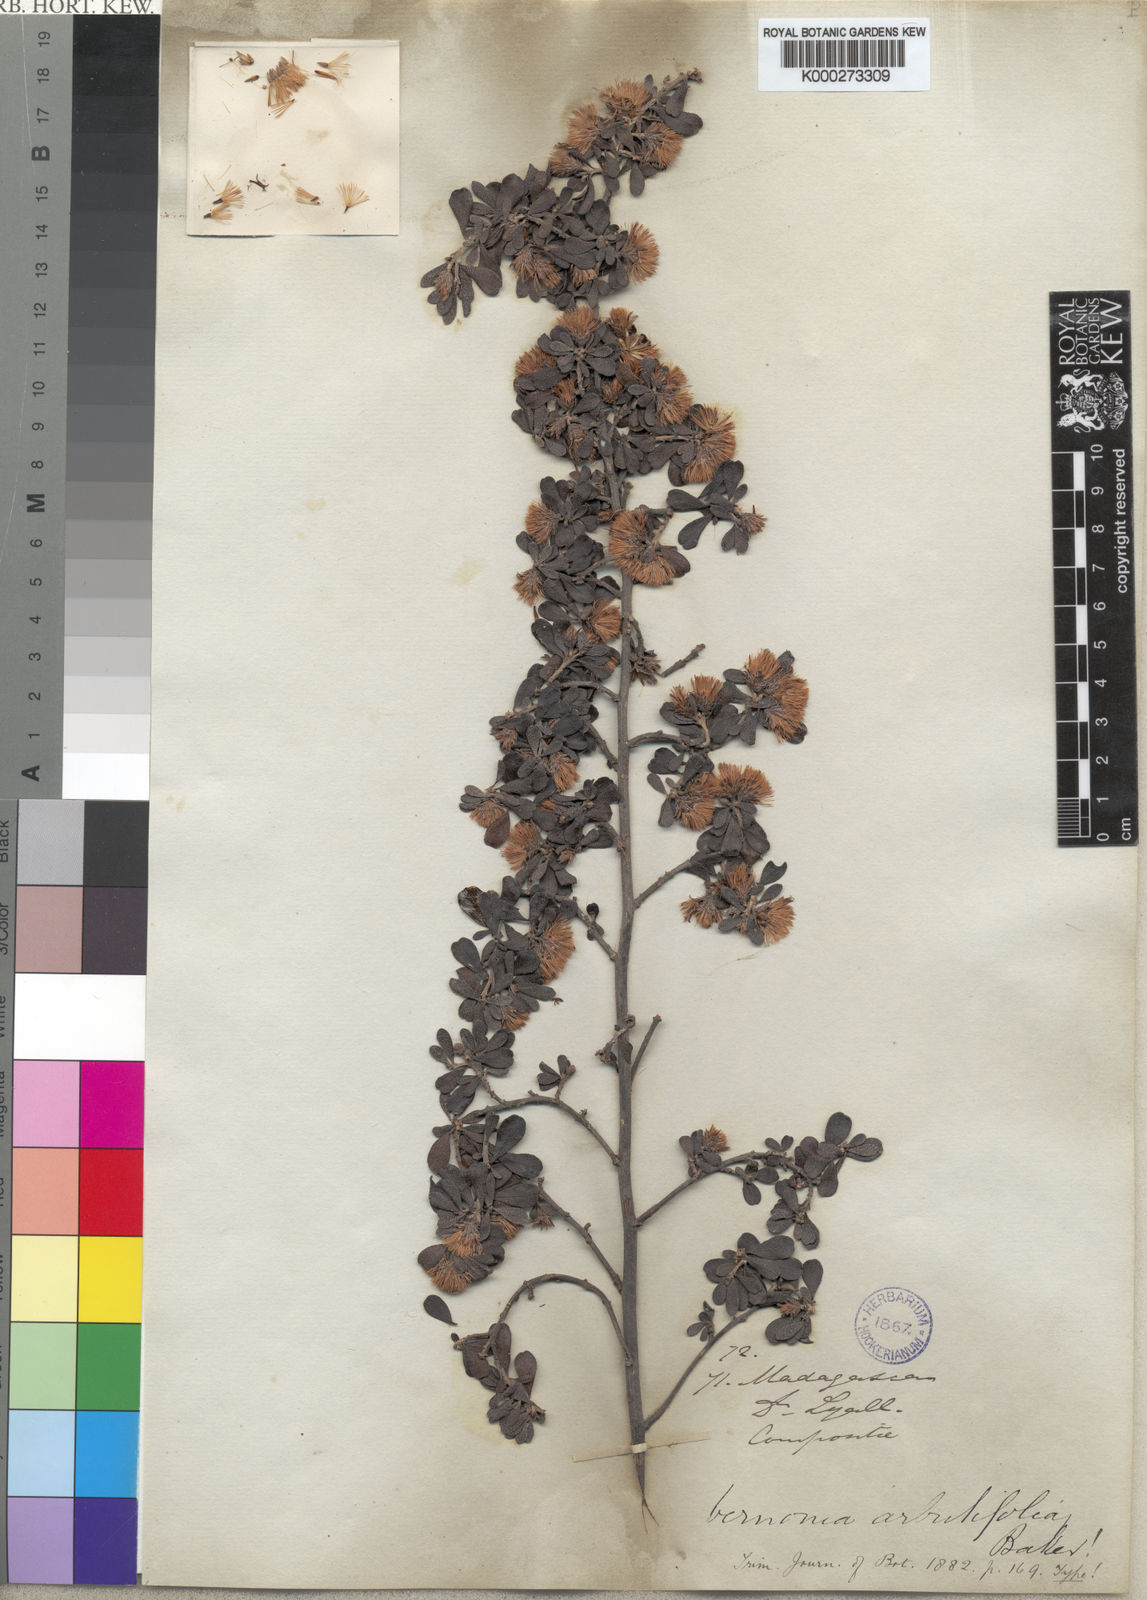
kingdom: Plantae
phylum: Tracheophyta
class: Magnoliopsida
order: Asterales
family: Asteraceae
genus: Distephanus
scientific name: Distephanus polygalifolius
